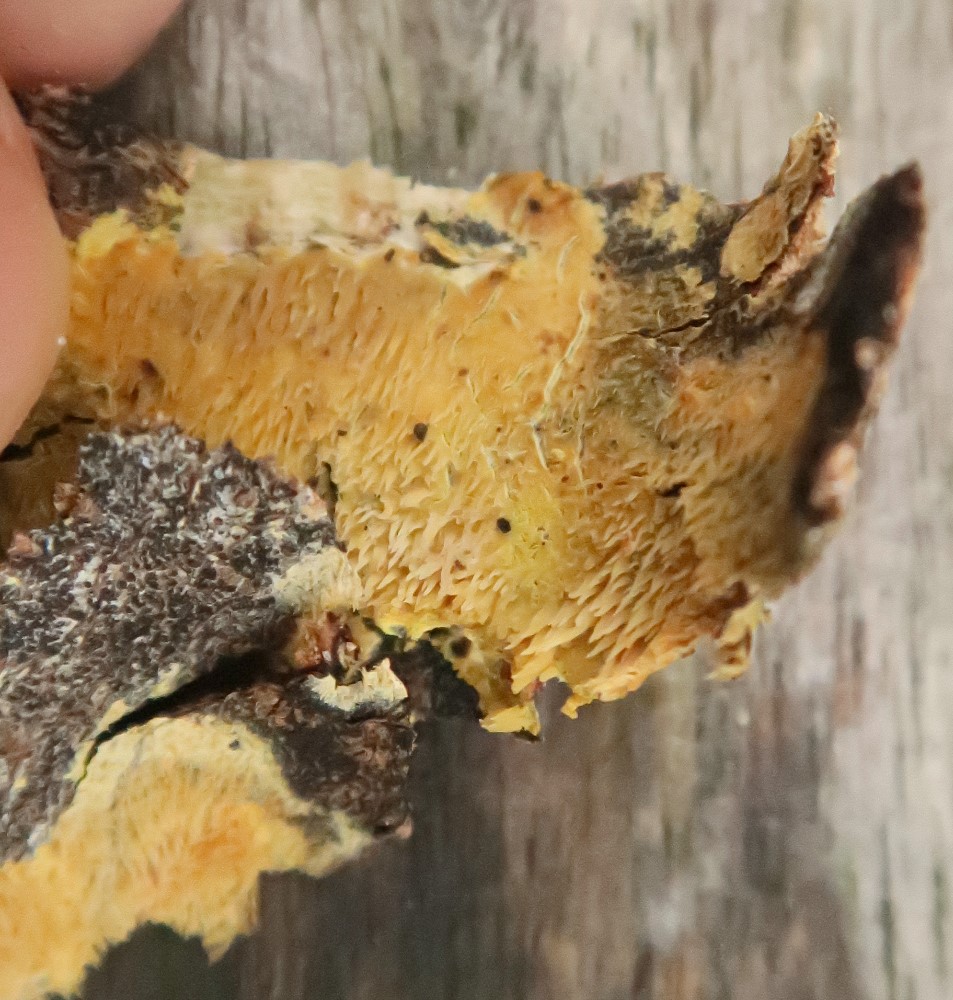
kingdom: Fungi
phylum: Basidiomycota
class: Agaricomycetes
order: Polyporales
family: Meruliaceae
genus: Mycoacia
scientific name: Mycoacia uda
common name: citrongul vokspig
